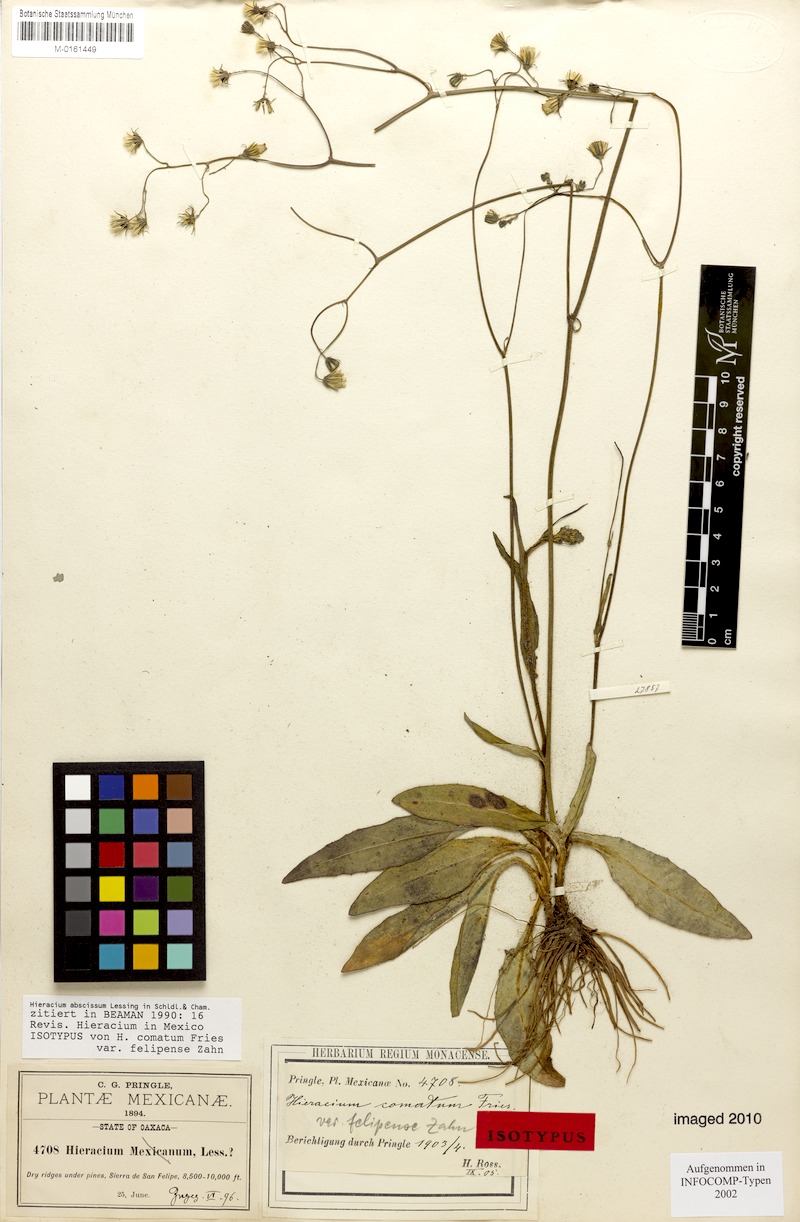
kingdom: Plantae
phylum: Tracheophyta
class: Magnoliopsida
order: Asterales
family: Asteraceae
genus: Hieracium
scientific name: Hieracium abscissum
